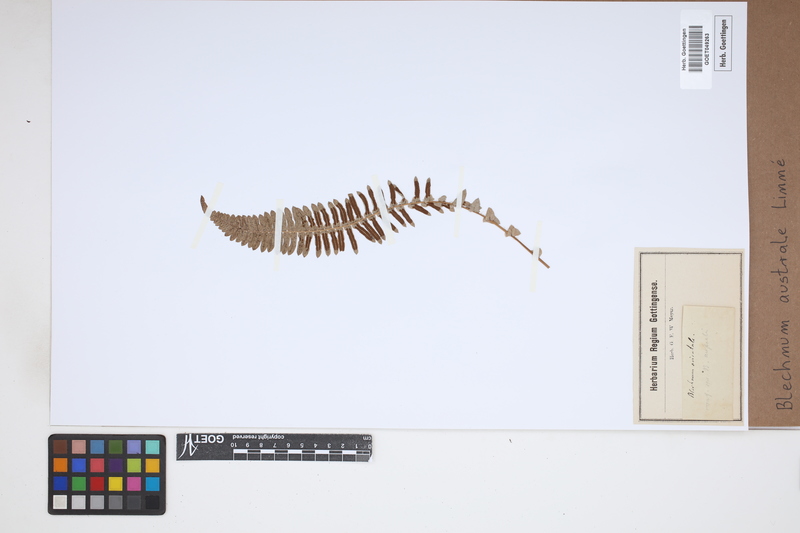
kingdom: Plantae
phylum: Tracheophyta
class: Polypodiopsida
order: Polypodiales
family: Blechnaceae
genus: Blechnum
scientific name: Blechnum australe
